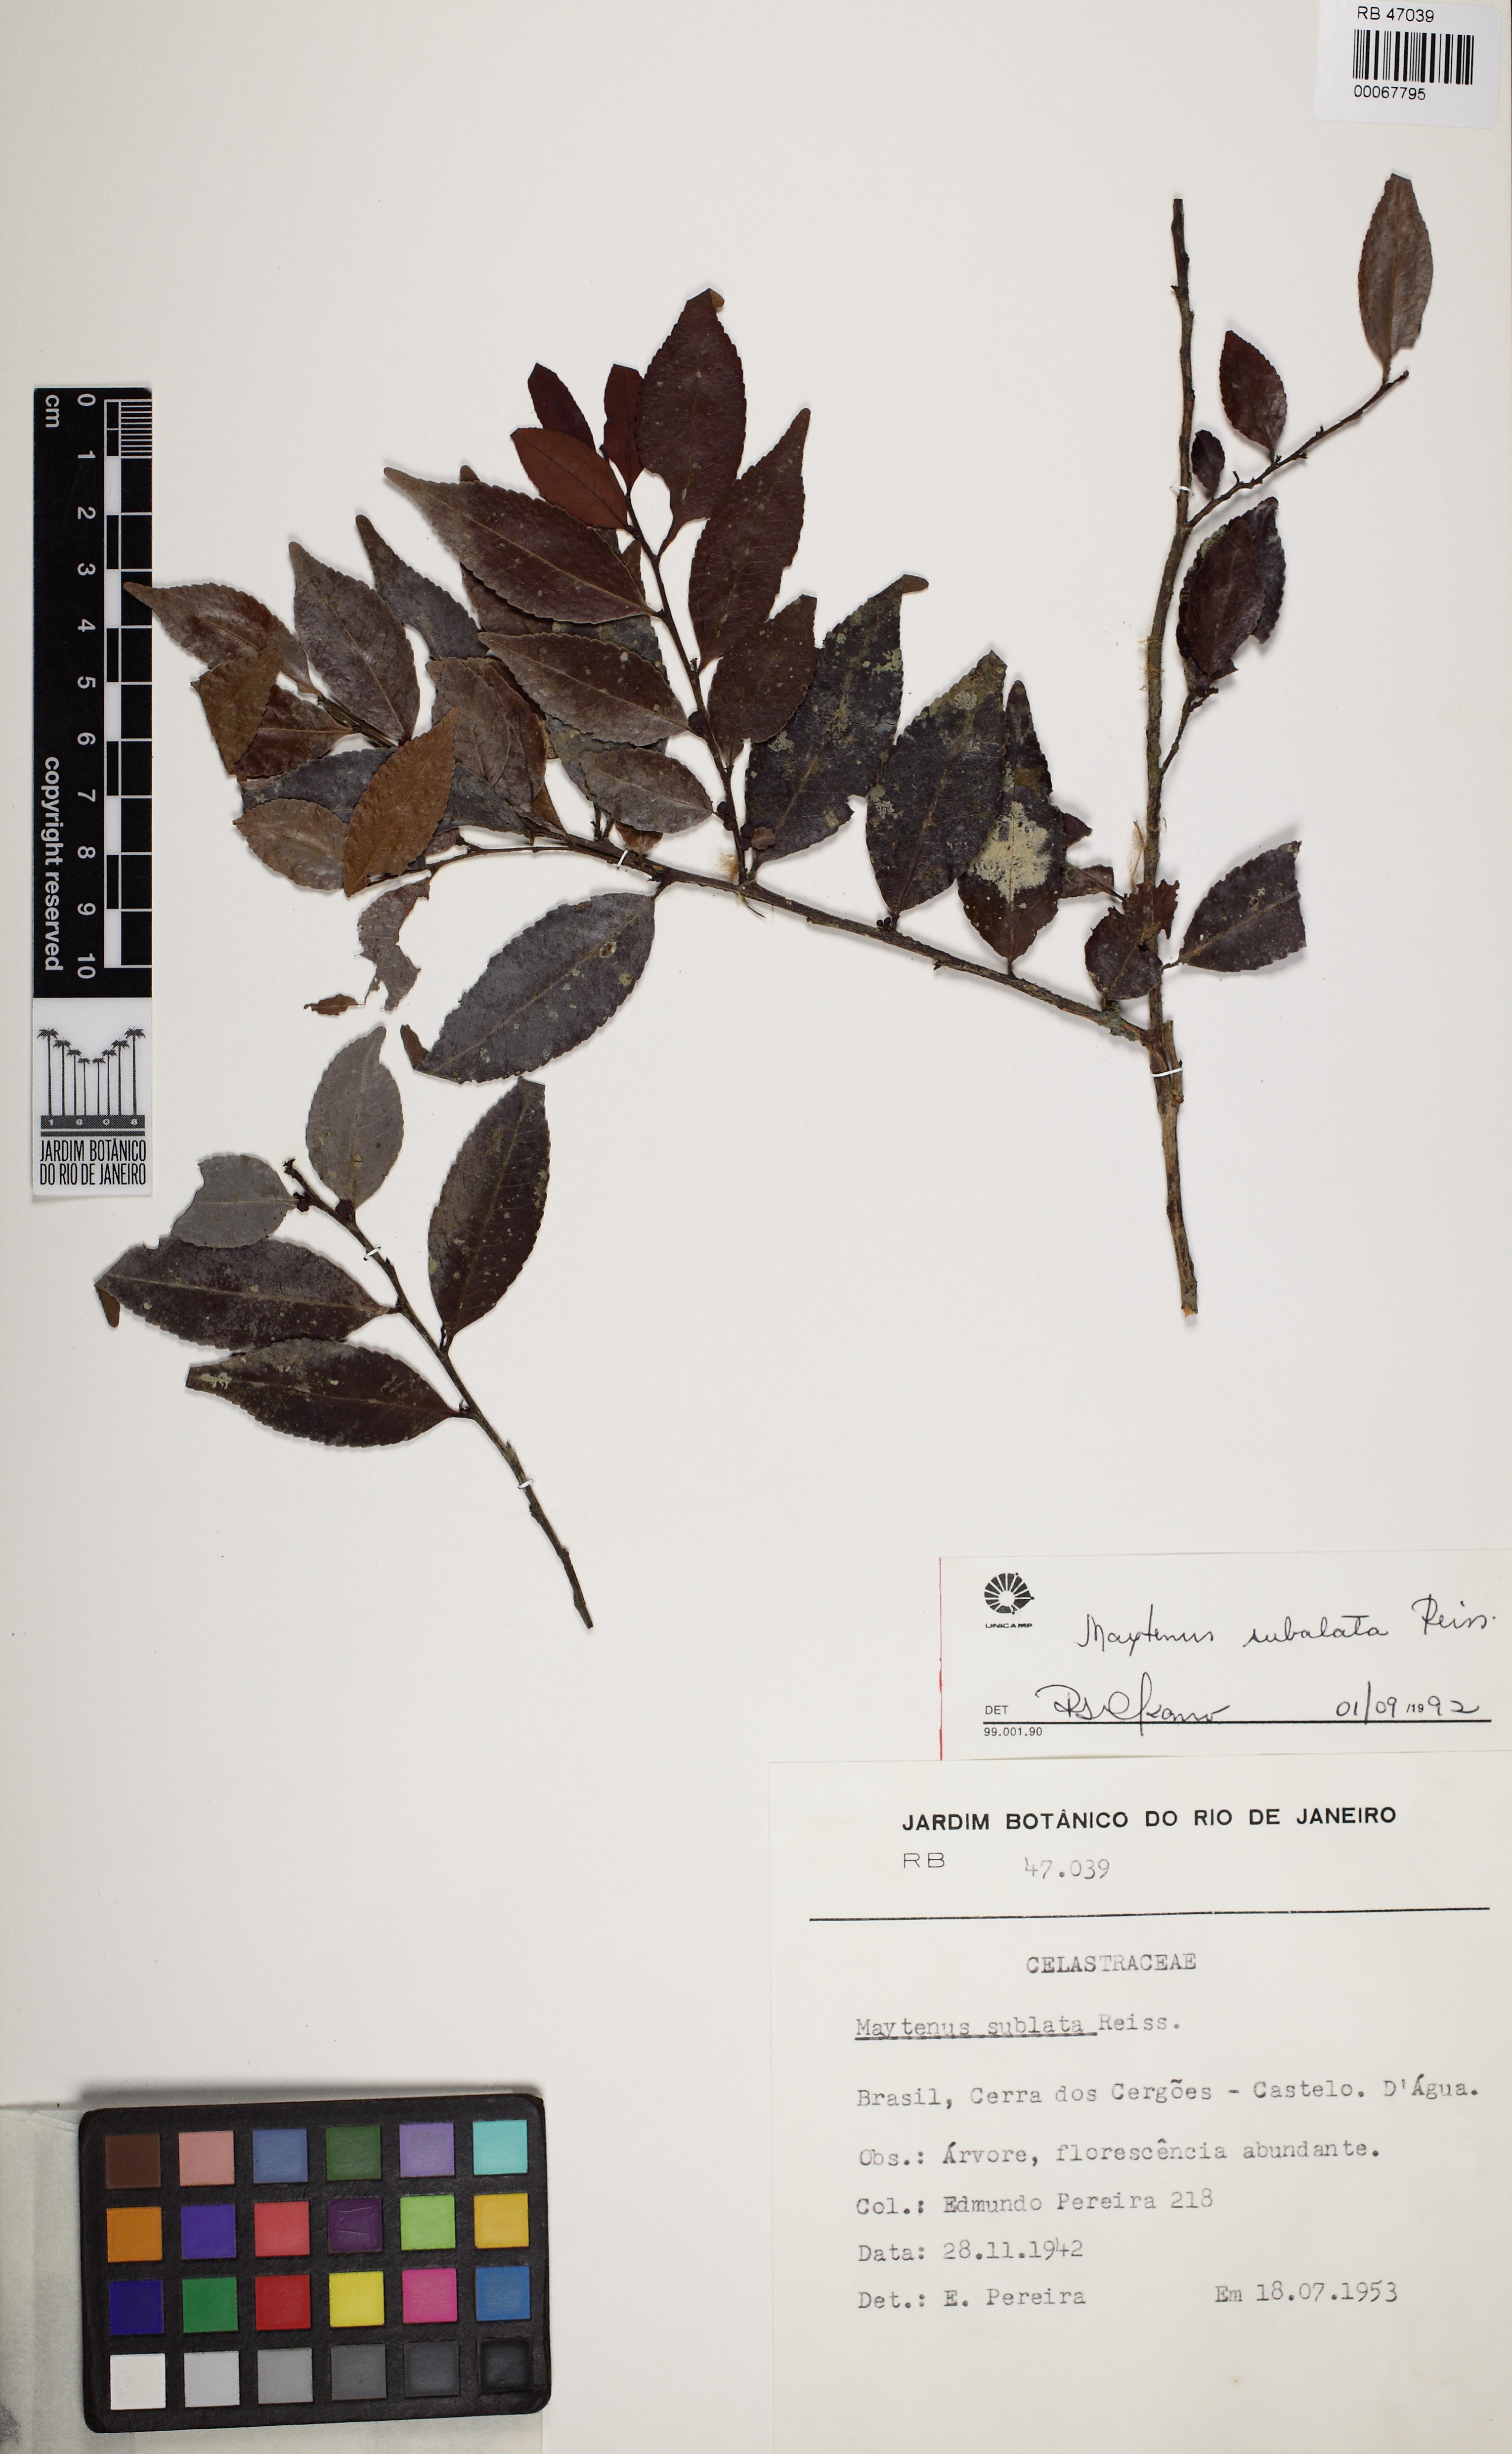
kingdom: Plantae
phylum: Tracheophyta
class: Magnoliopsida
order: Celastrales
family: Celastraceae
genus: Monteverdia
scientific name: Monteverdia subalata
